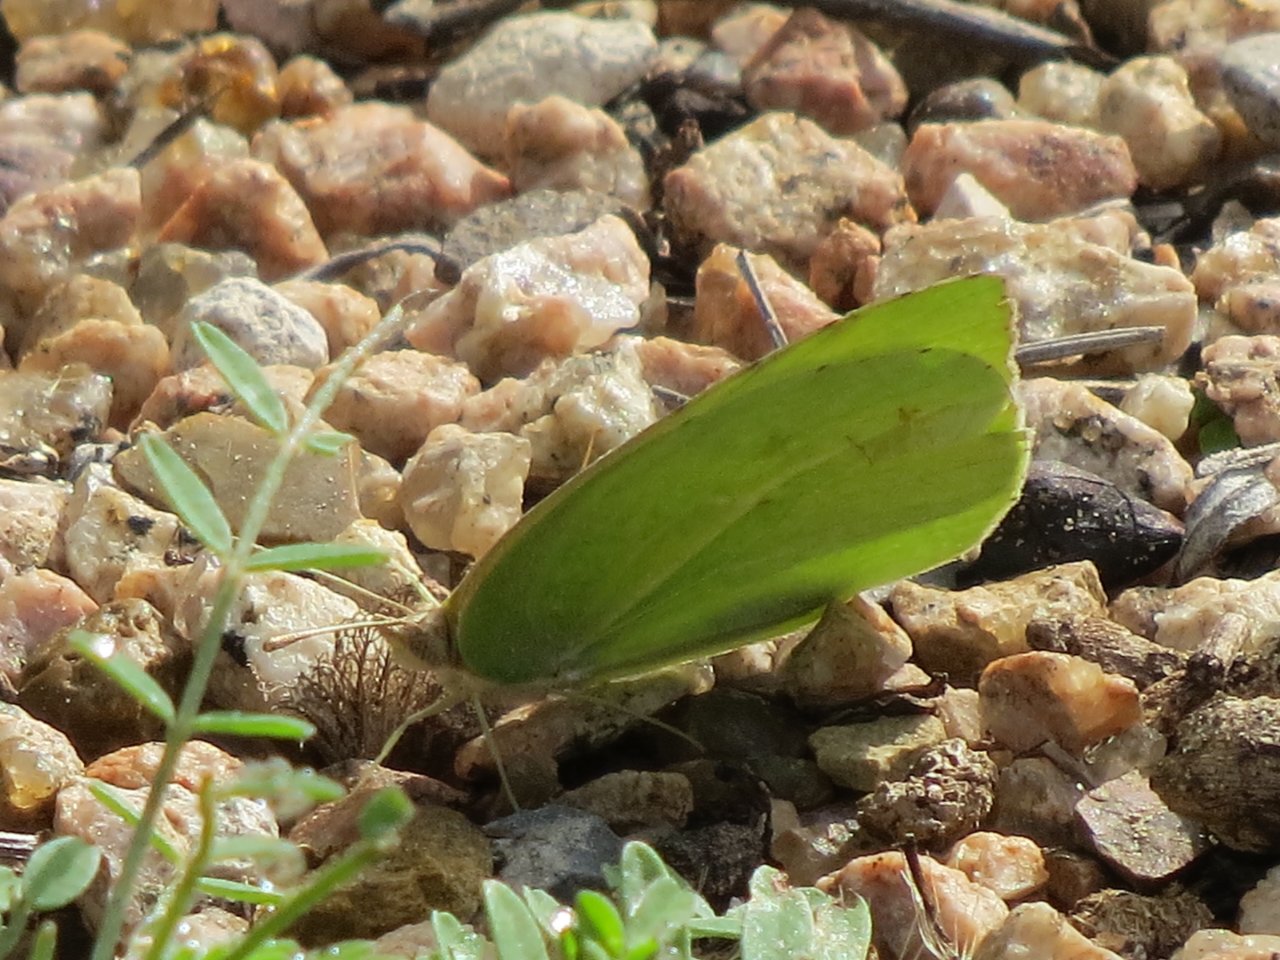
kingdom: Animalia
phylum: Arthropoda
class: Insecta
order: Lepidoptera
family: Pieridae
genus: Kricogonia
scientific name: Kricogonia lyside
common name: Lyside Sulphur
